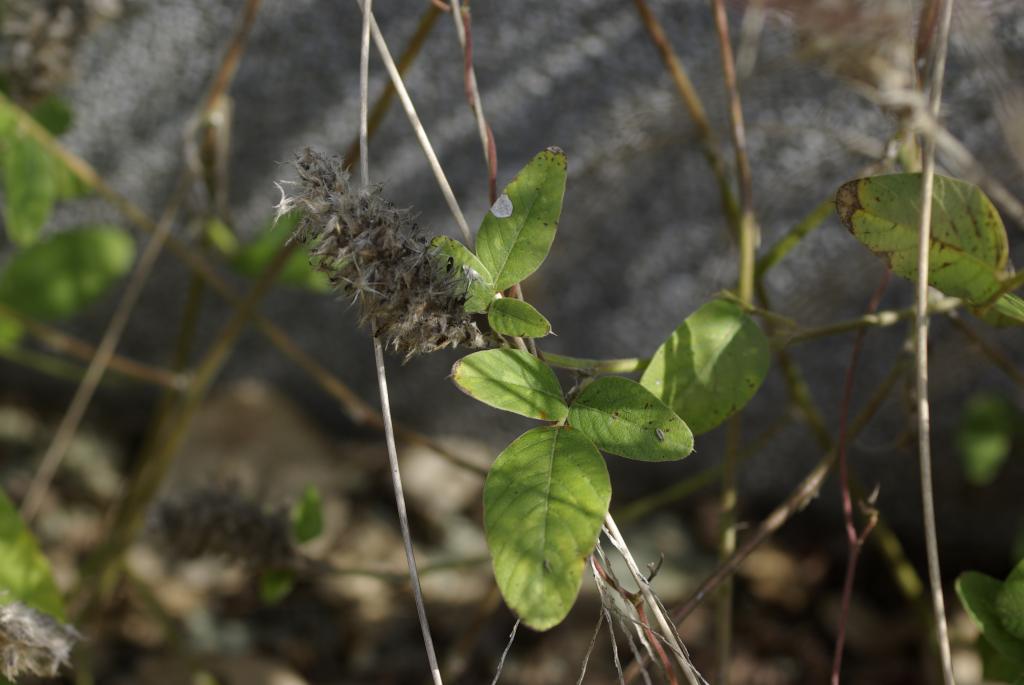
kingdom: Plantae
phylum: Tracheophyta
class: Magnoliopsida
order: Fabales
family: Fabaceae
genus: Uraria
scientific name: Uraria lagopodioides
